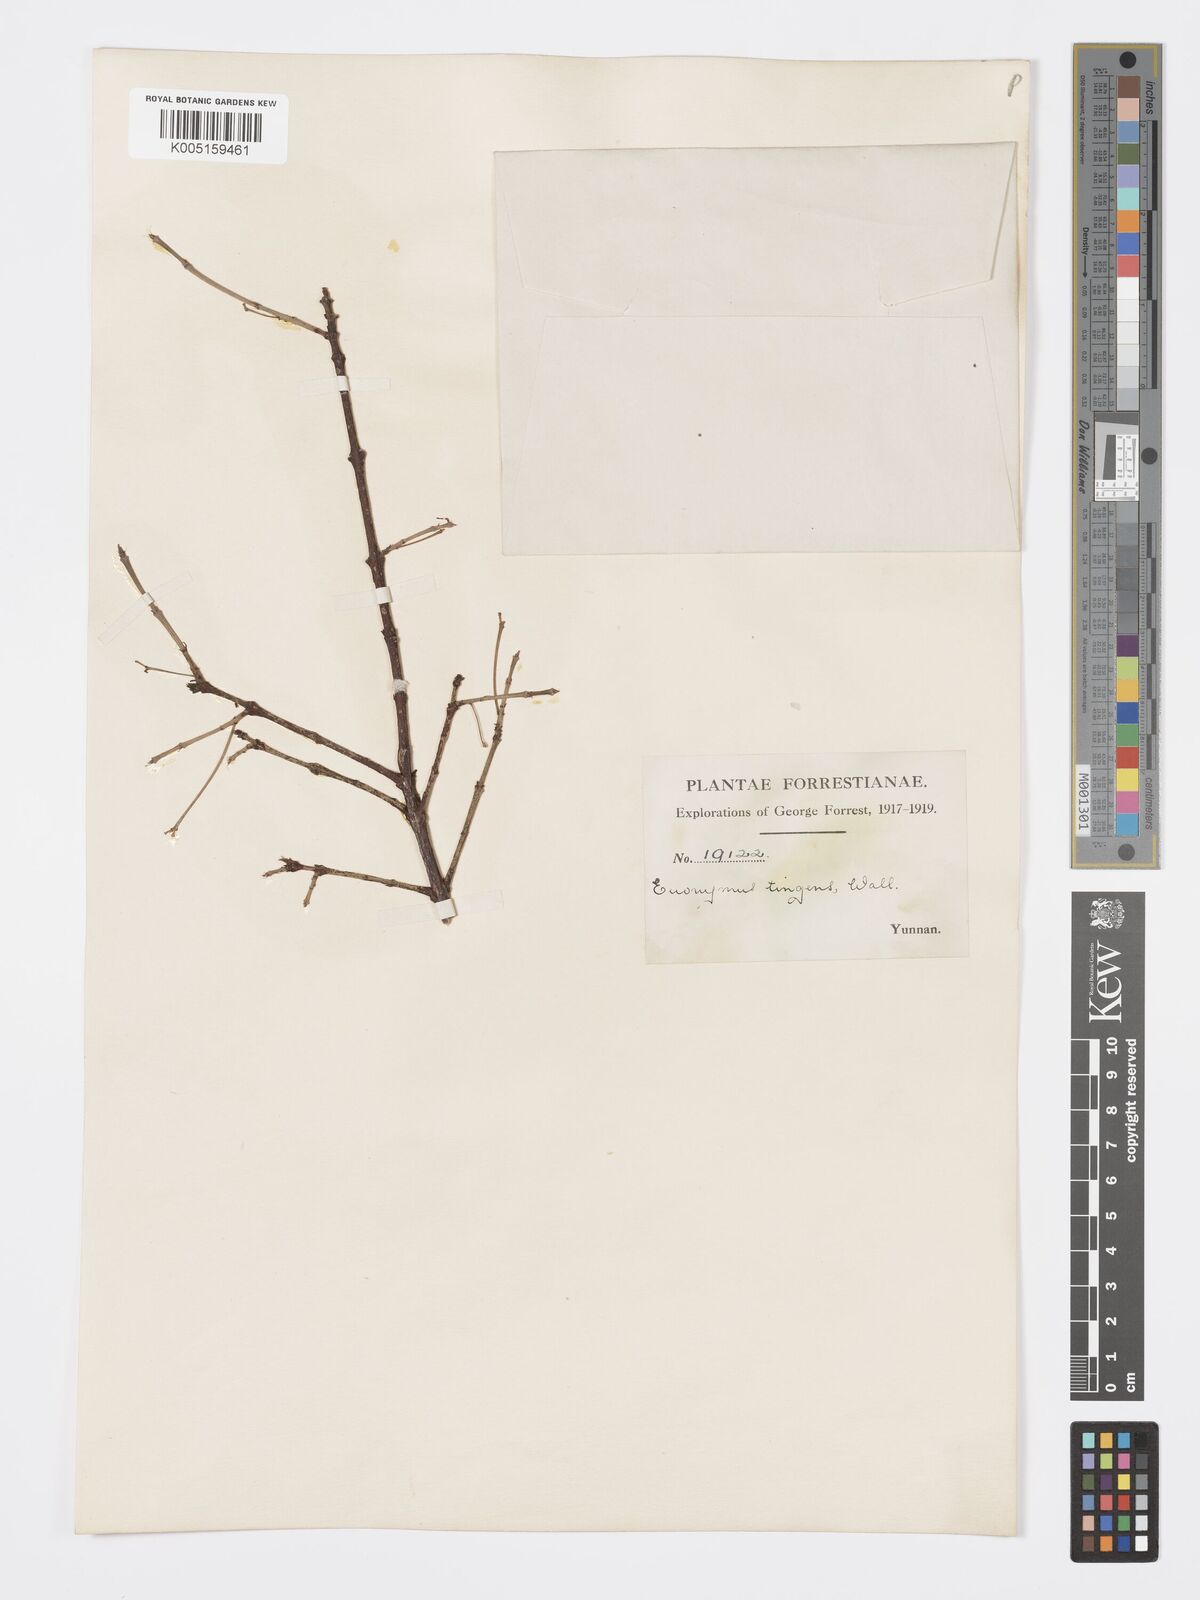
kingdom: Plantae
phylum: Tracheophyta
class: Magnoliopsida
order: Celastrales
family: Celastraceae
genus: Euonymus
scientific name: Euonymus tingens
